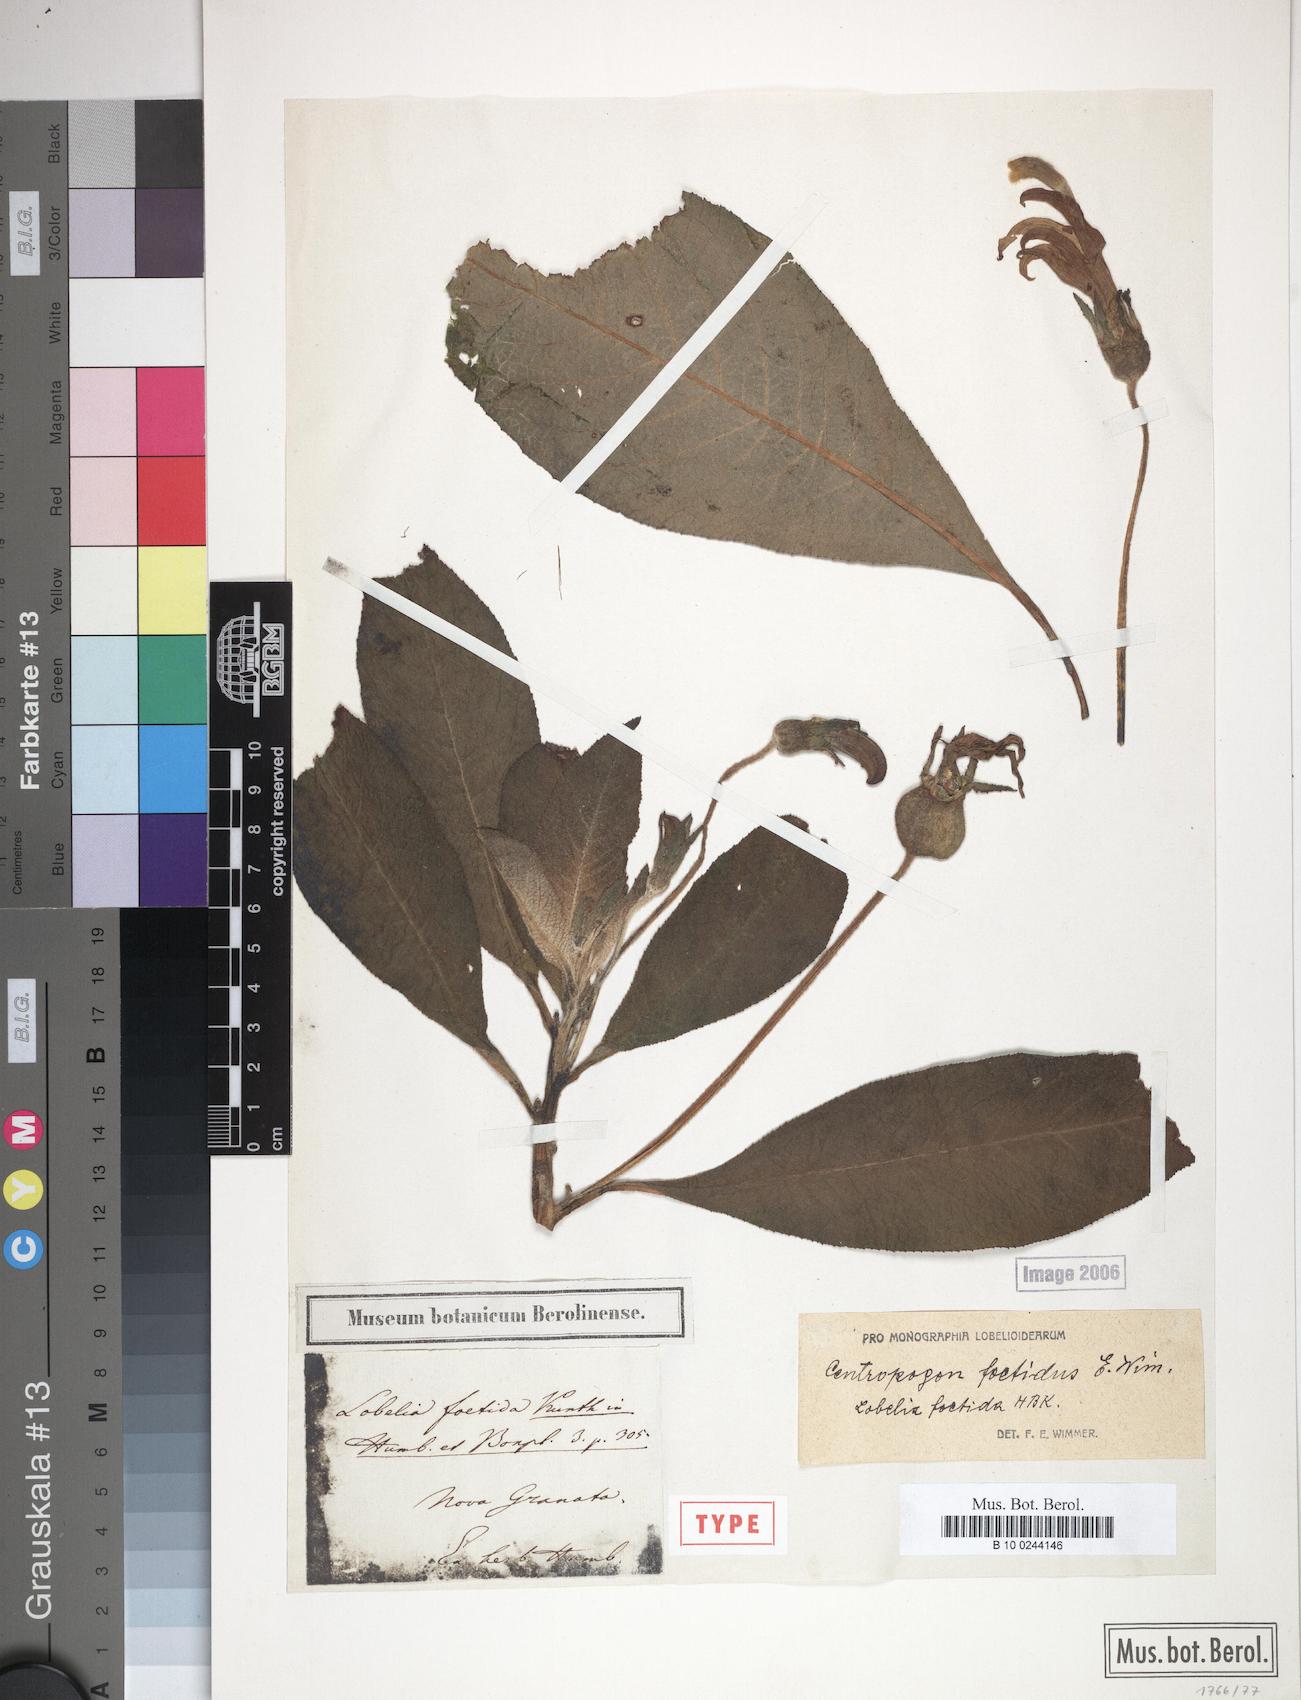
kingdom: Plantae
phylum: Tracheophyta
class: Magnoliopsida
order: Asterales
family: Campanulaceae
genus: Centropogon
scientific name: Centropogon foetidus
